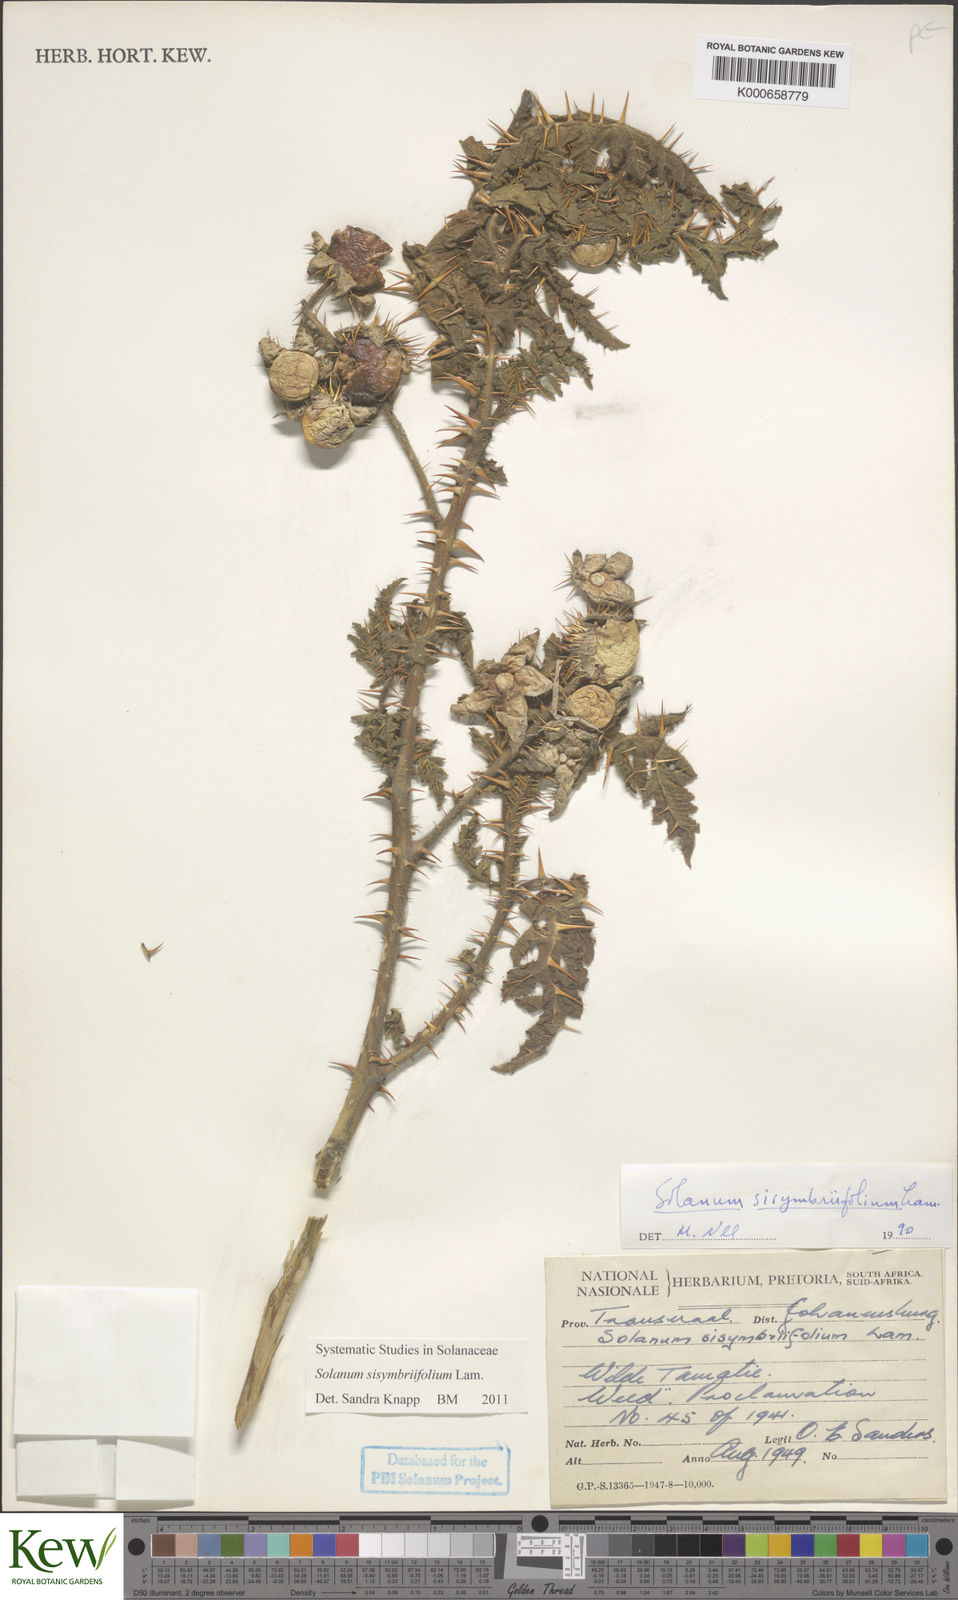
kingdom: Plantae
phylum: Tracheophyta
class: Magnoliopsida
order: Solanales
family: Solanaceae
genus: Solanum
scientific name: Solanum sisymbriifolium
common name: Red buffalo-bur
